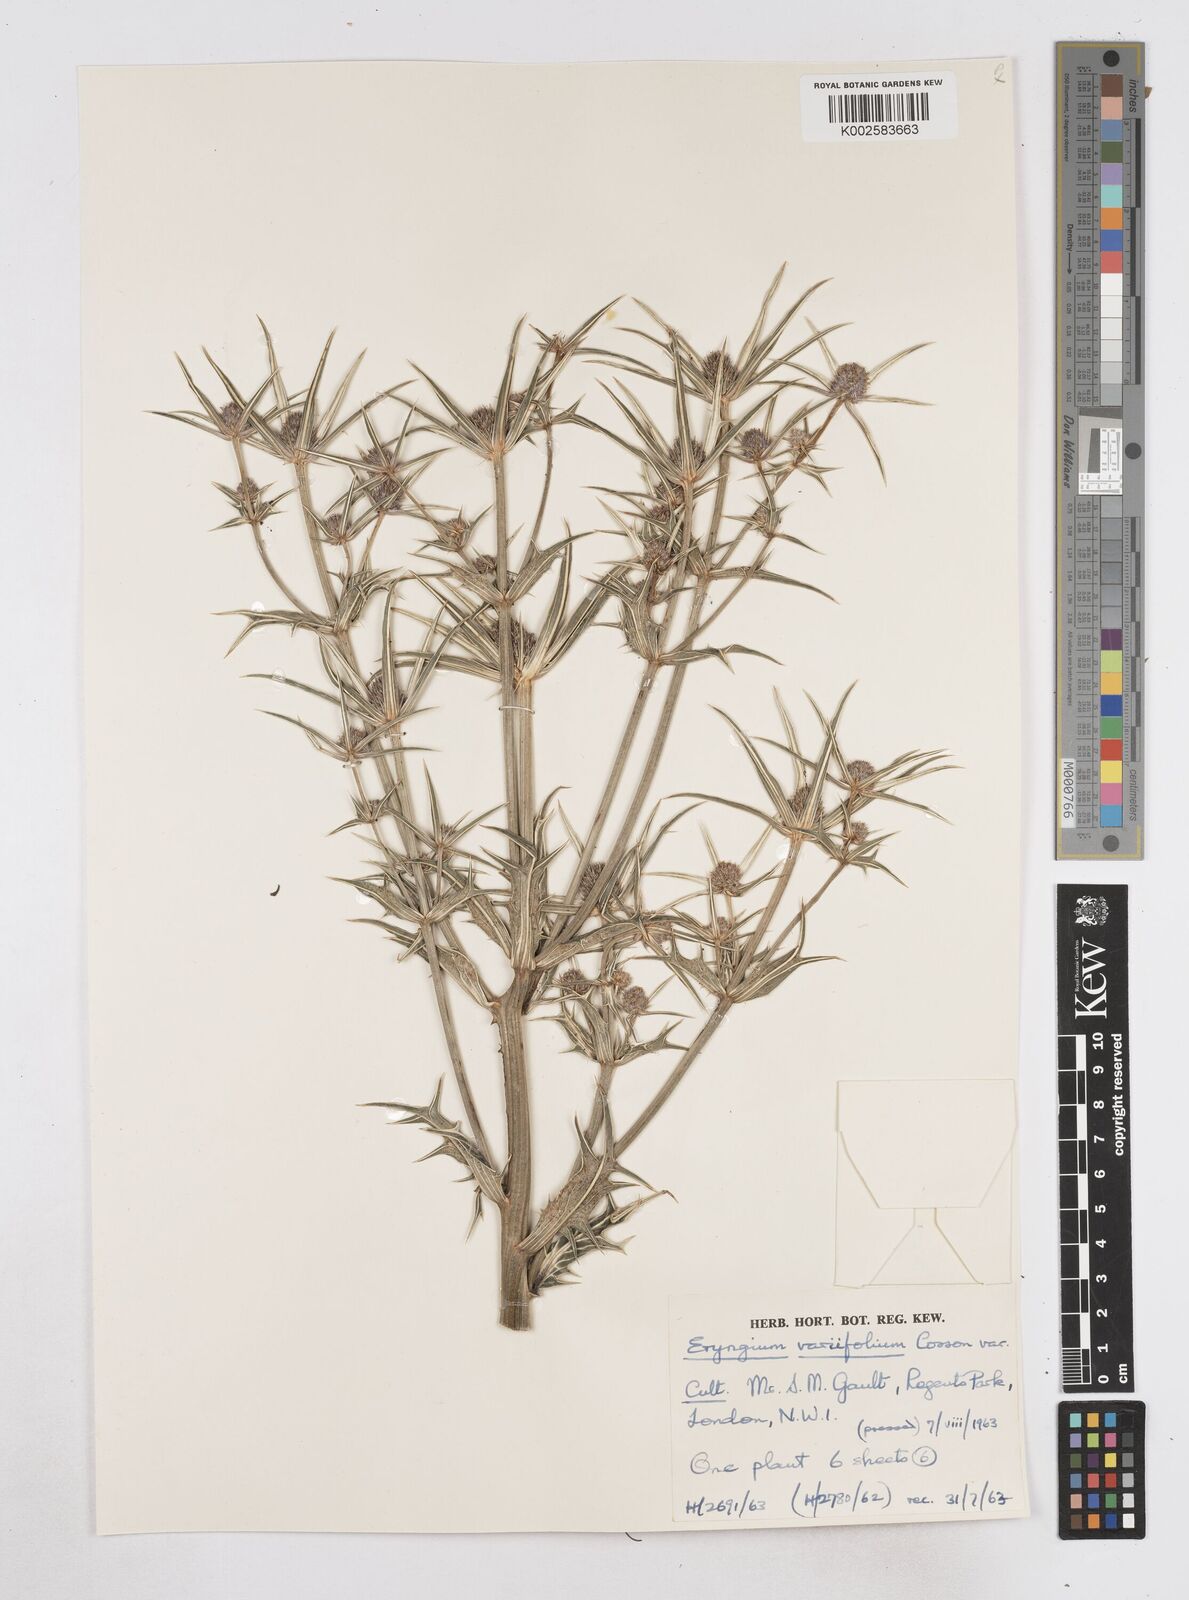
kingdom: Plantae
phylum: Tracheophyta
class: Magnoliopsida
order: Apiales
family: Apiaceae
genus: Eryngium
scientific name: Eryngium variifolium
